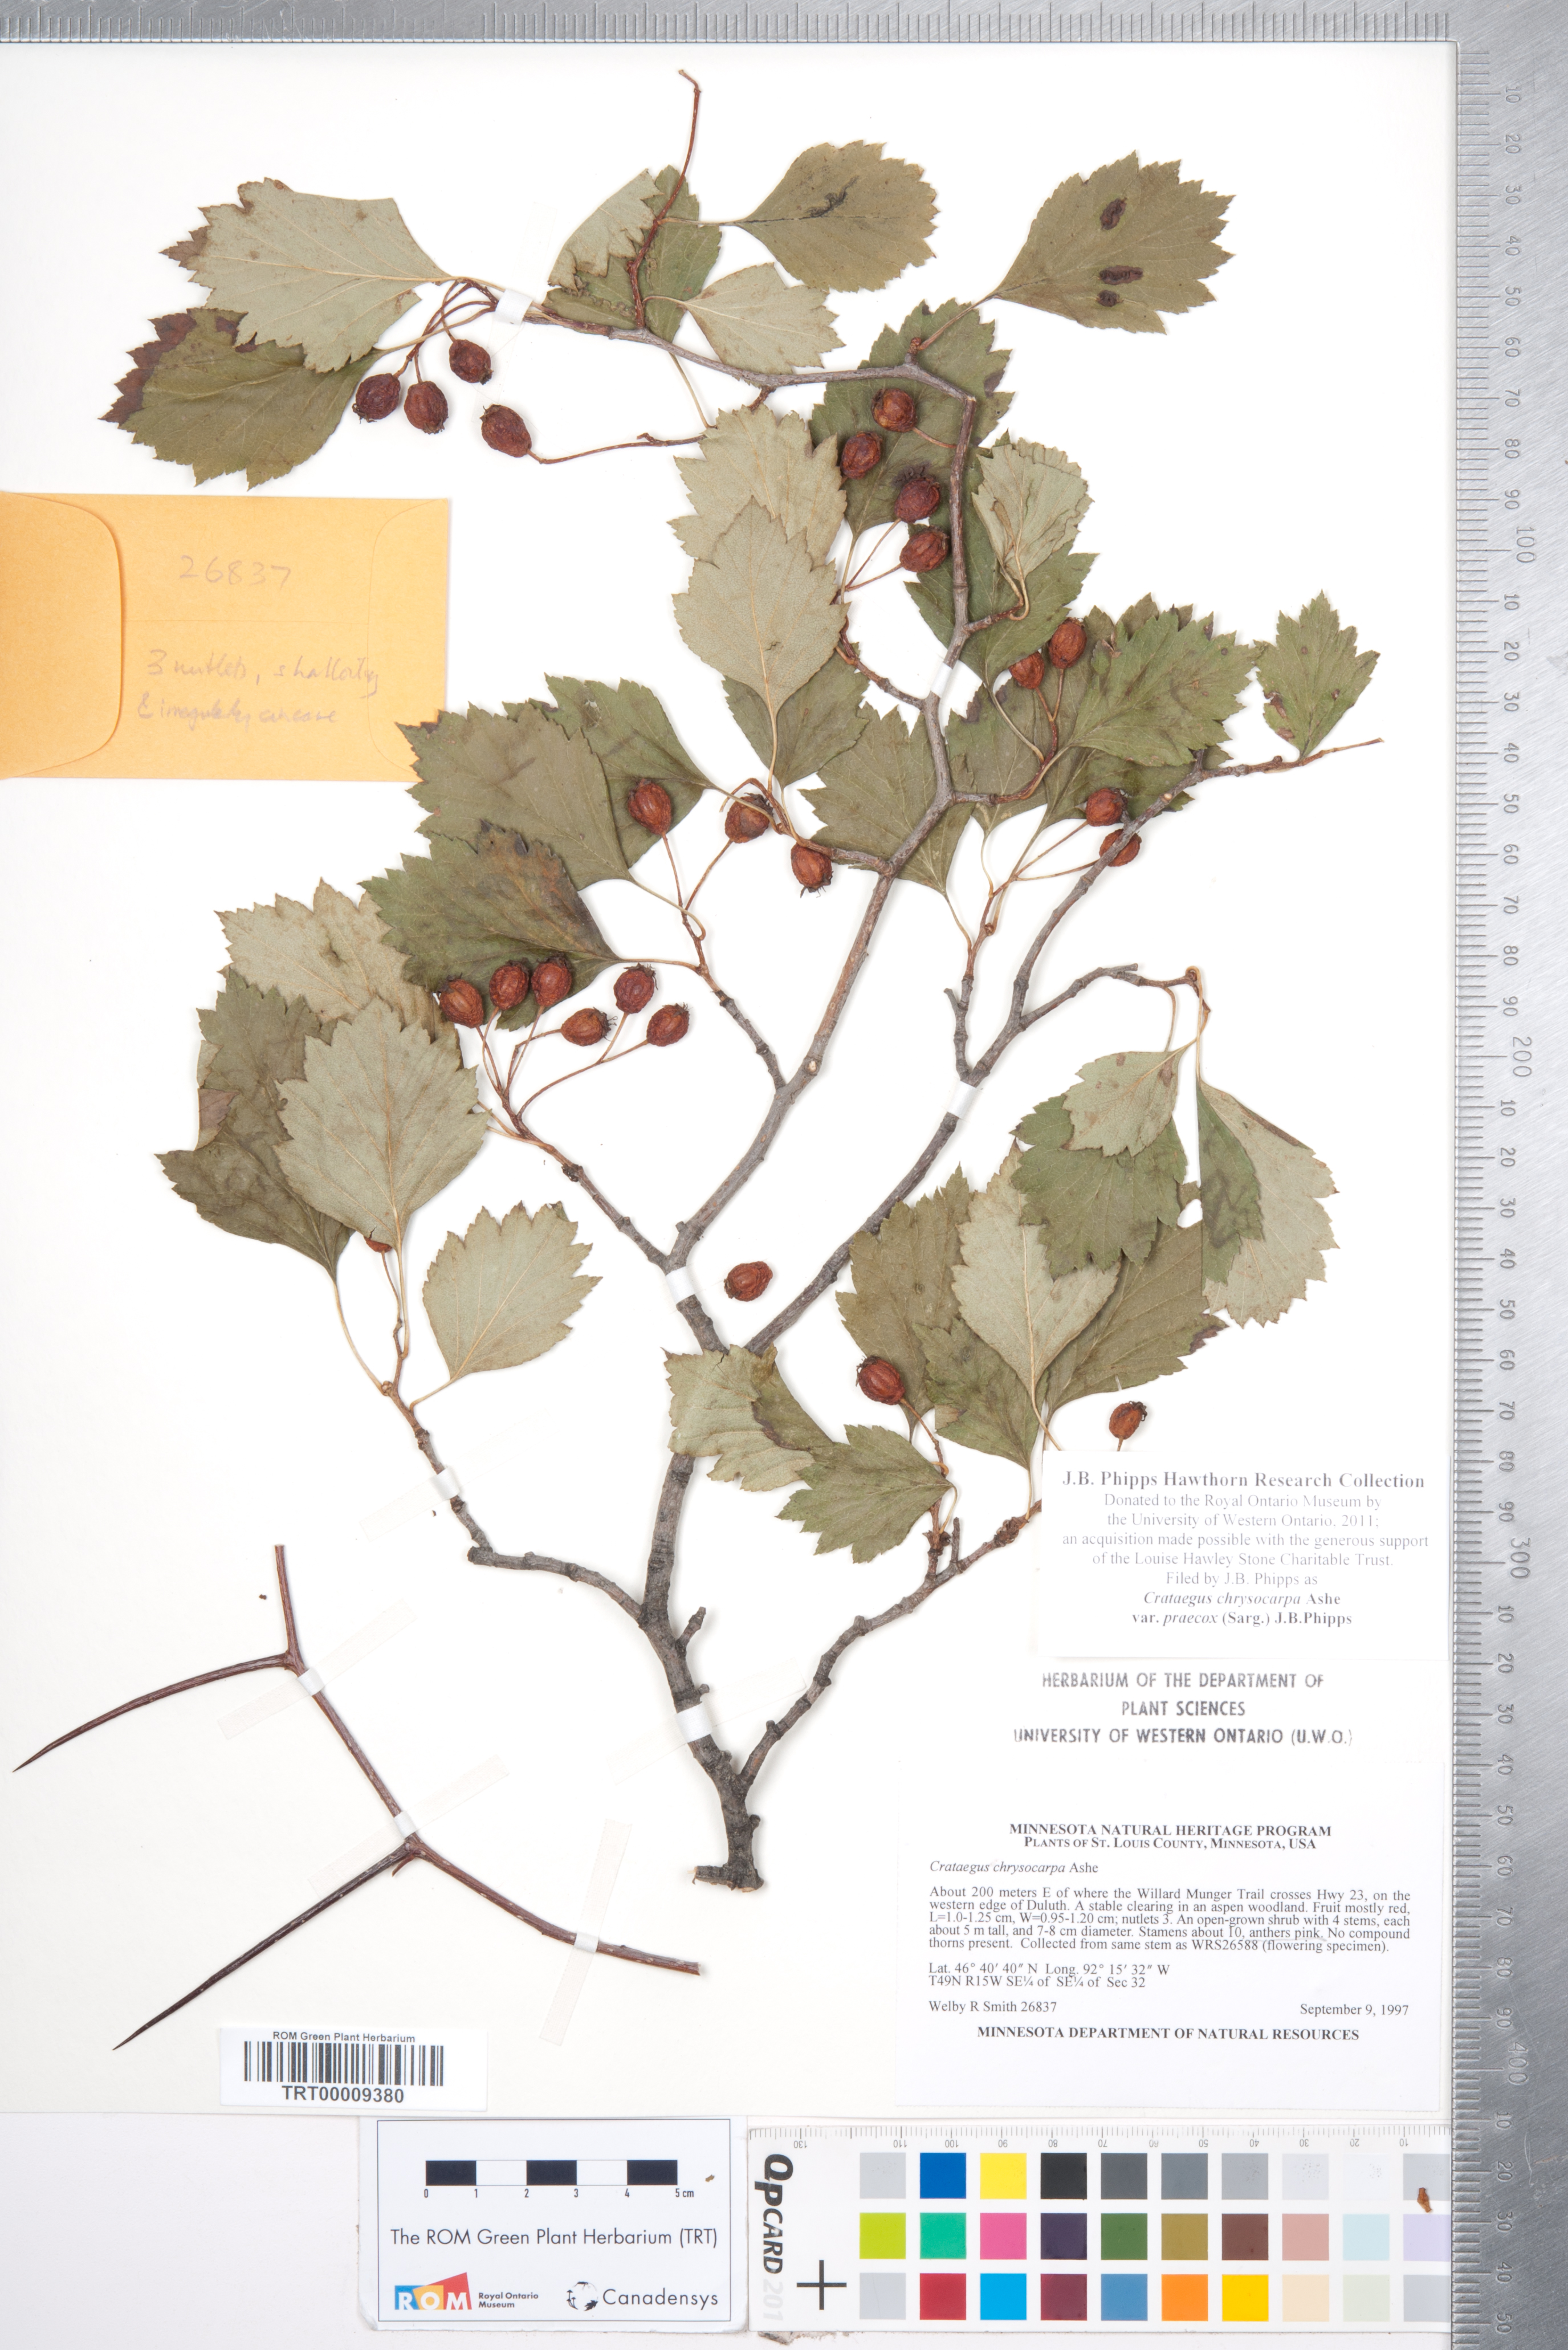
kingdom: Plantae
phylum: Tracheophyta
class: Magnoliopsida
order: Rosales
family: Rosaceae
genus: Crataegus
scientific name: Crataegus chrysocarpa
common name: Fire-berry hawthorn
